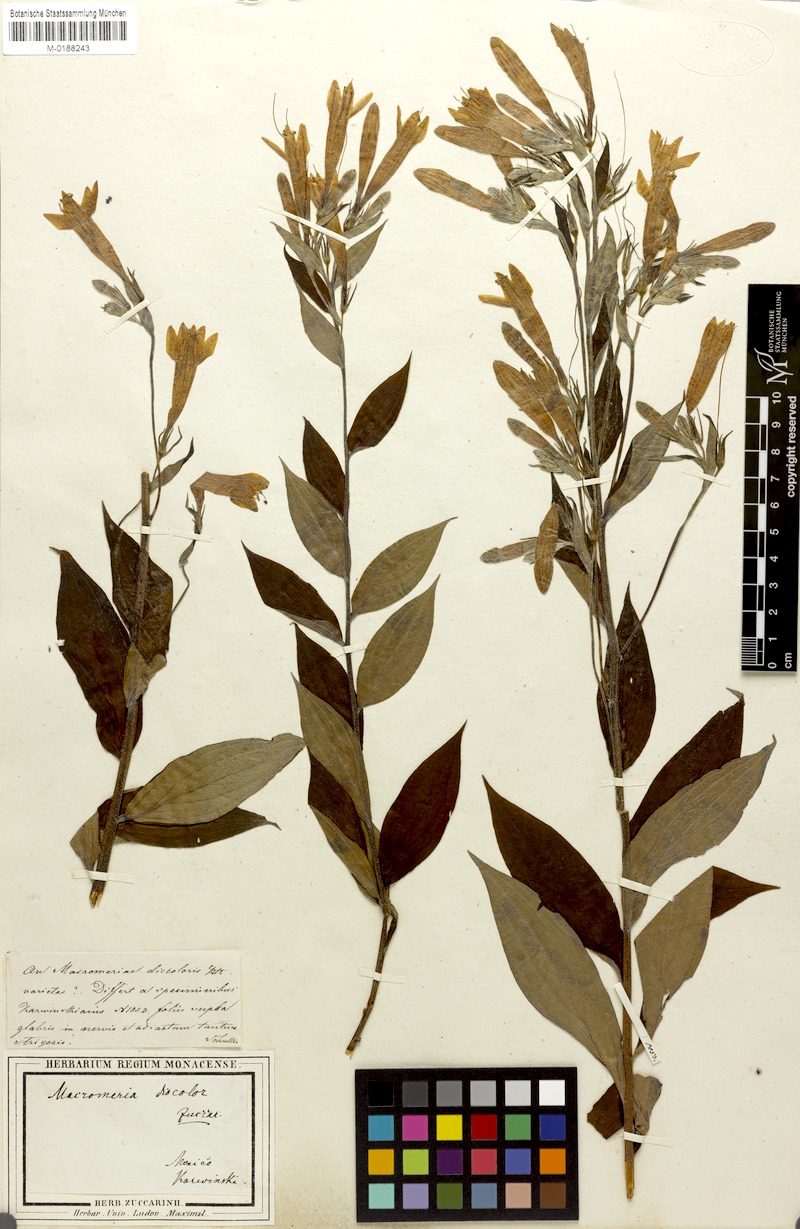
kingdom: Plantae
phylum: Tracheophyta
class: Magnoliopsida
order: Boraginales
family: Boraginaceae
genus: Lithospermum
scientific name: Lithospermum johnstonii
